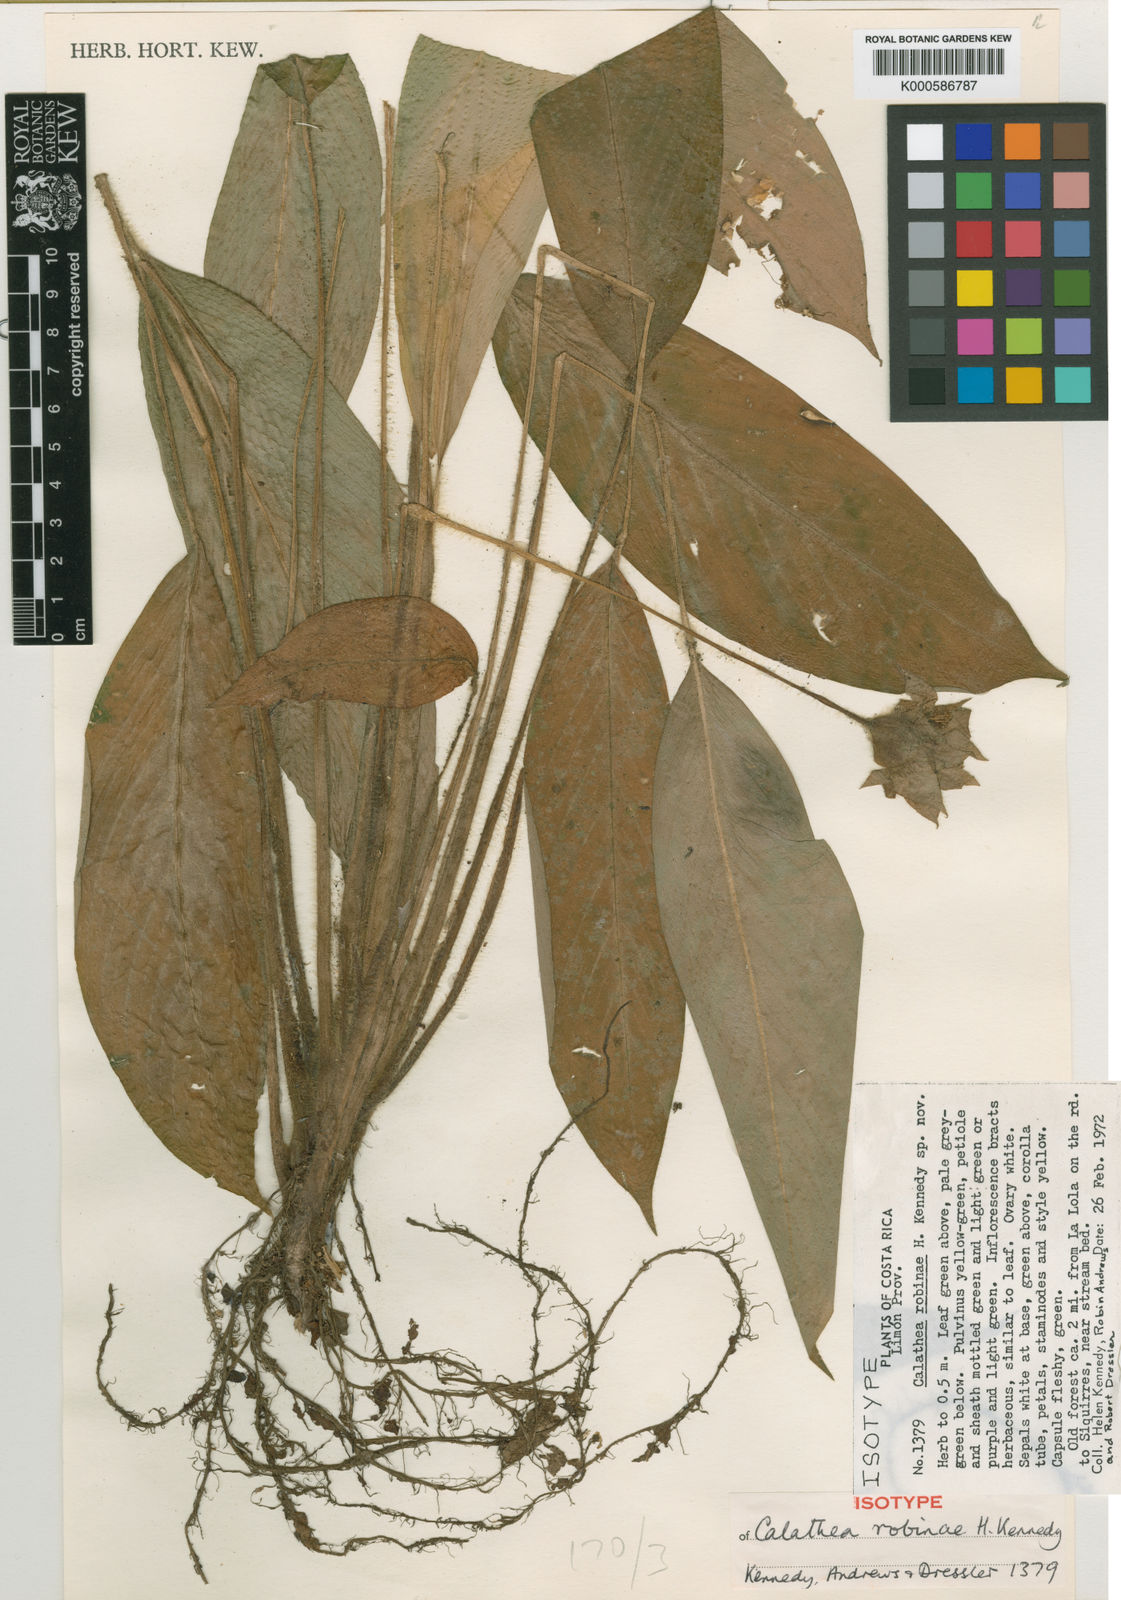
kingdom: Plantae
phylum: Tracheophyta
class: Liliopsida
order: Zingiberales
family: Marantaceae
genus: Goeppertia
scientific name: Goeppertia robiniae
